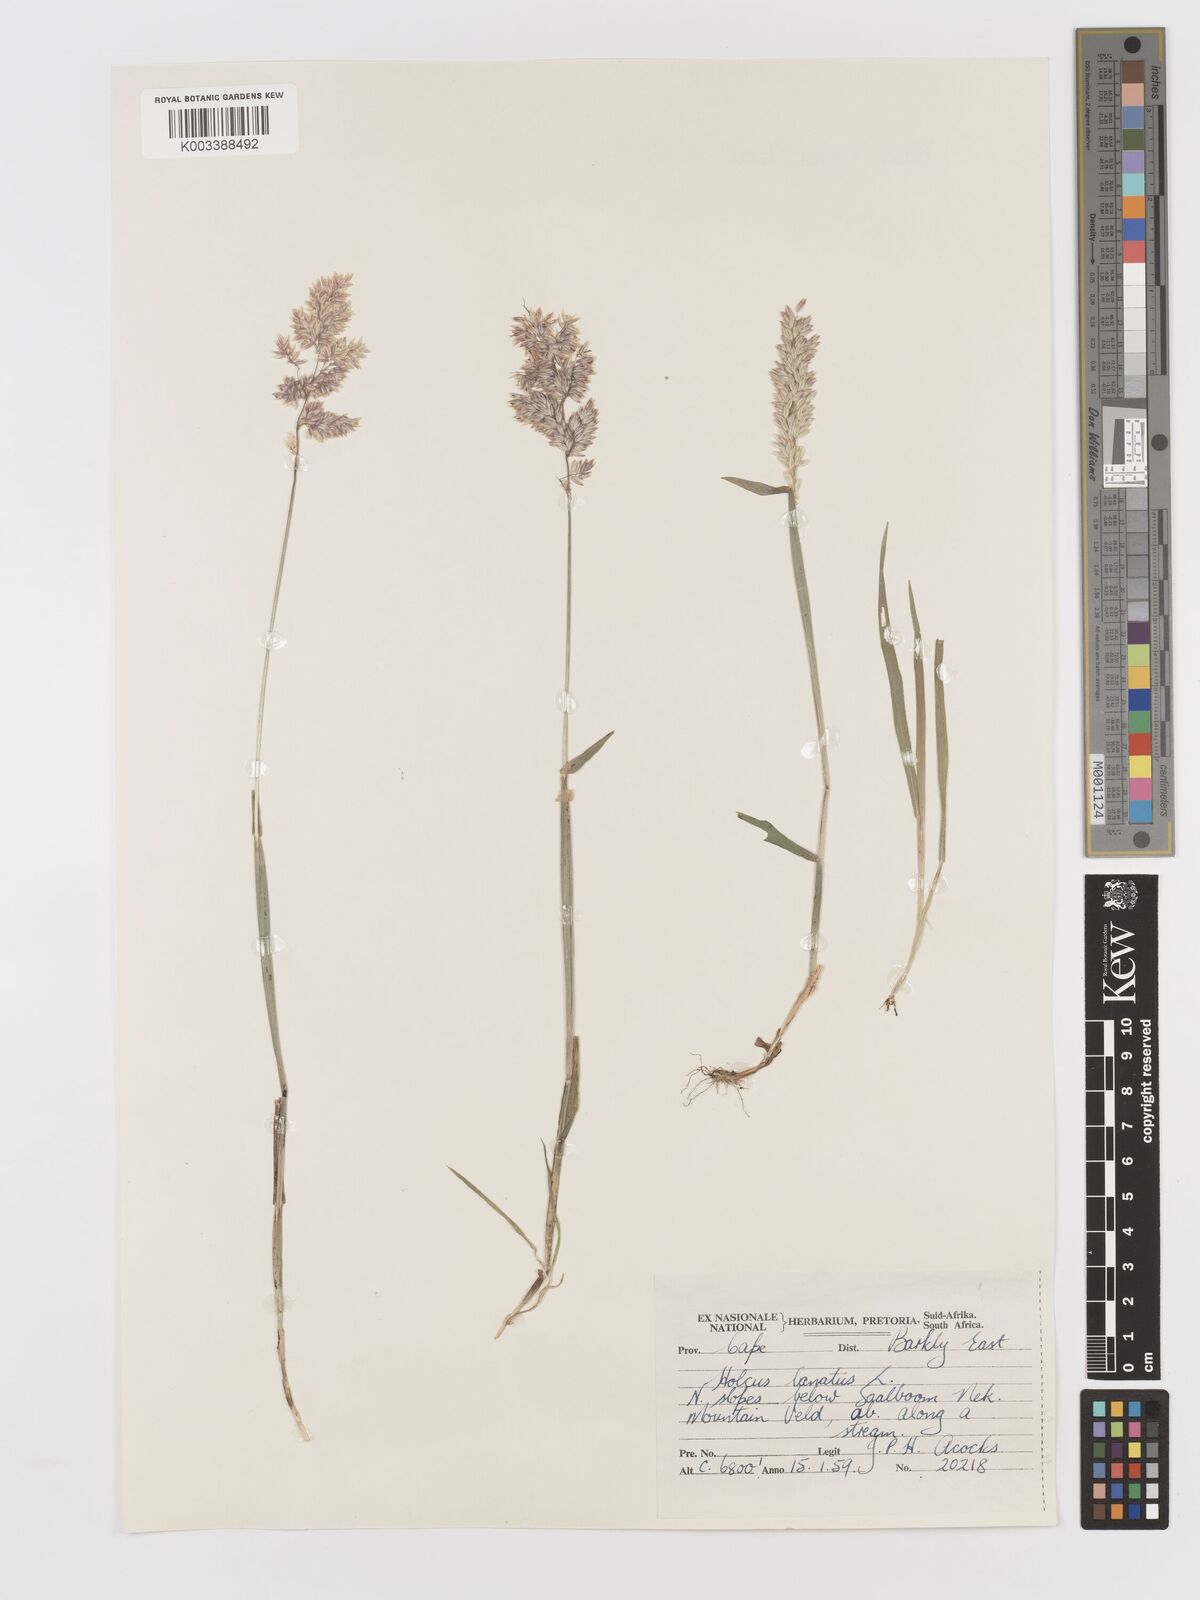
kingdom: Plantae
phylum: Tracheophyta
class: Liliopsida
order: Poales
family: Poaceae
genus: Holcus
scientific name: Holcus lanatus
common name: Yorkshire-fog
